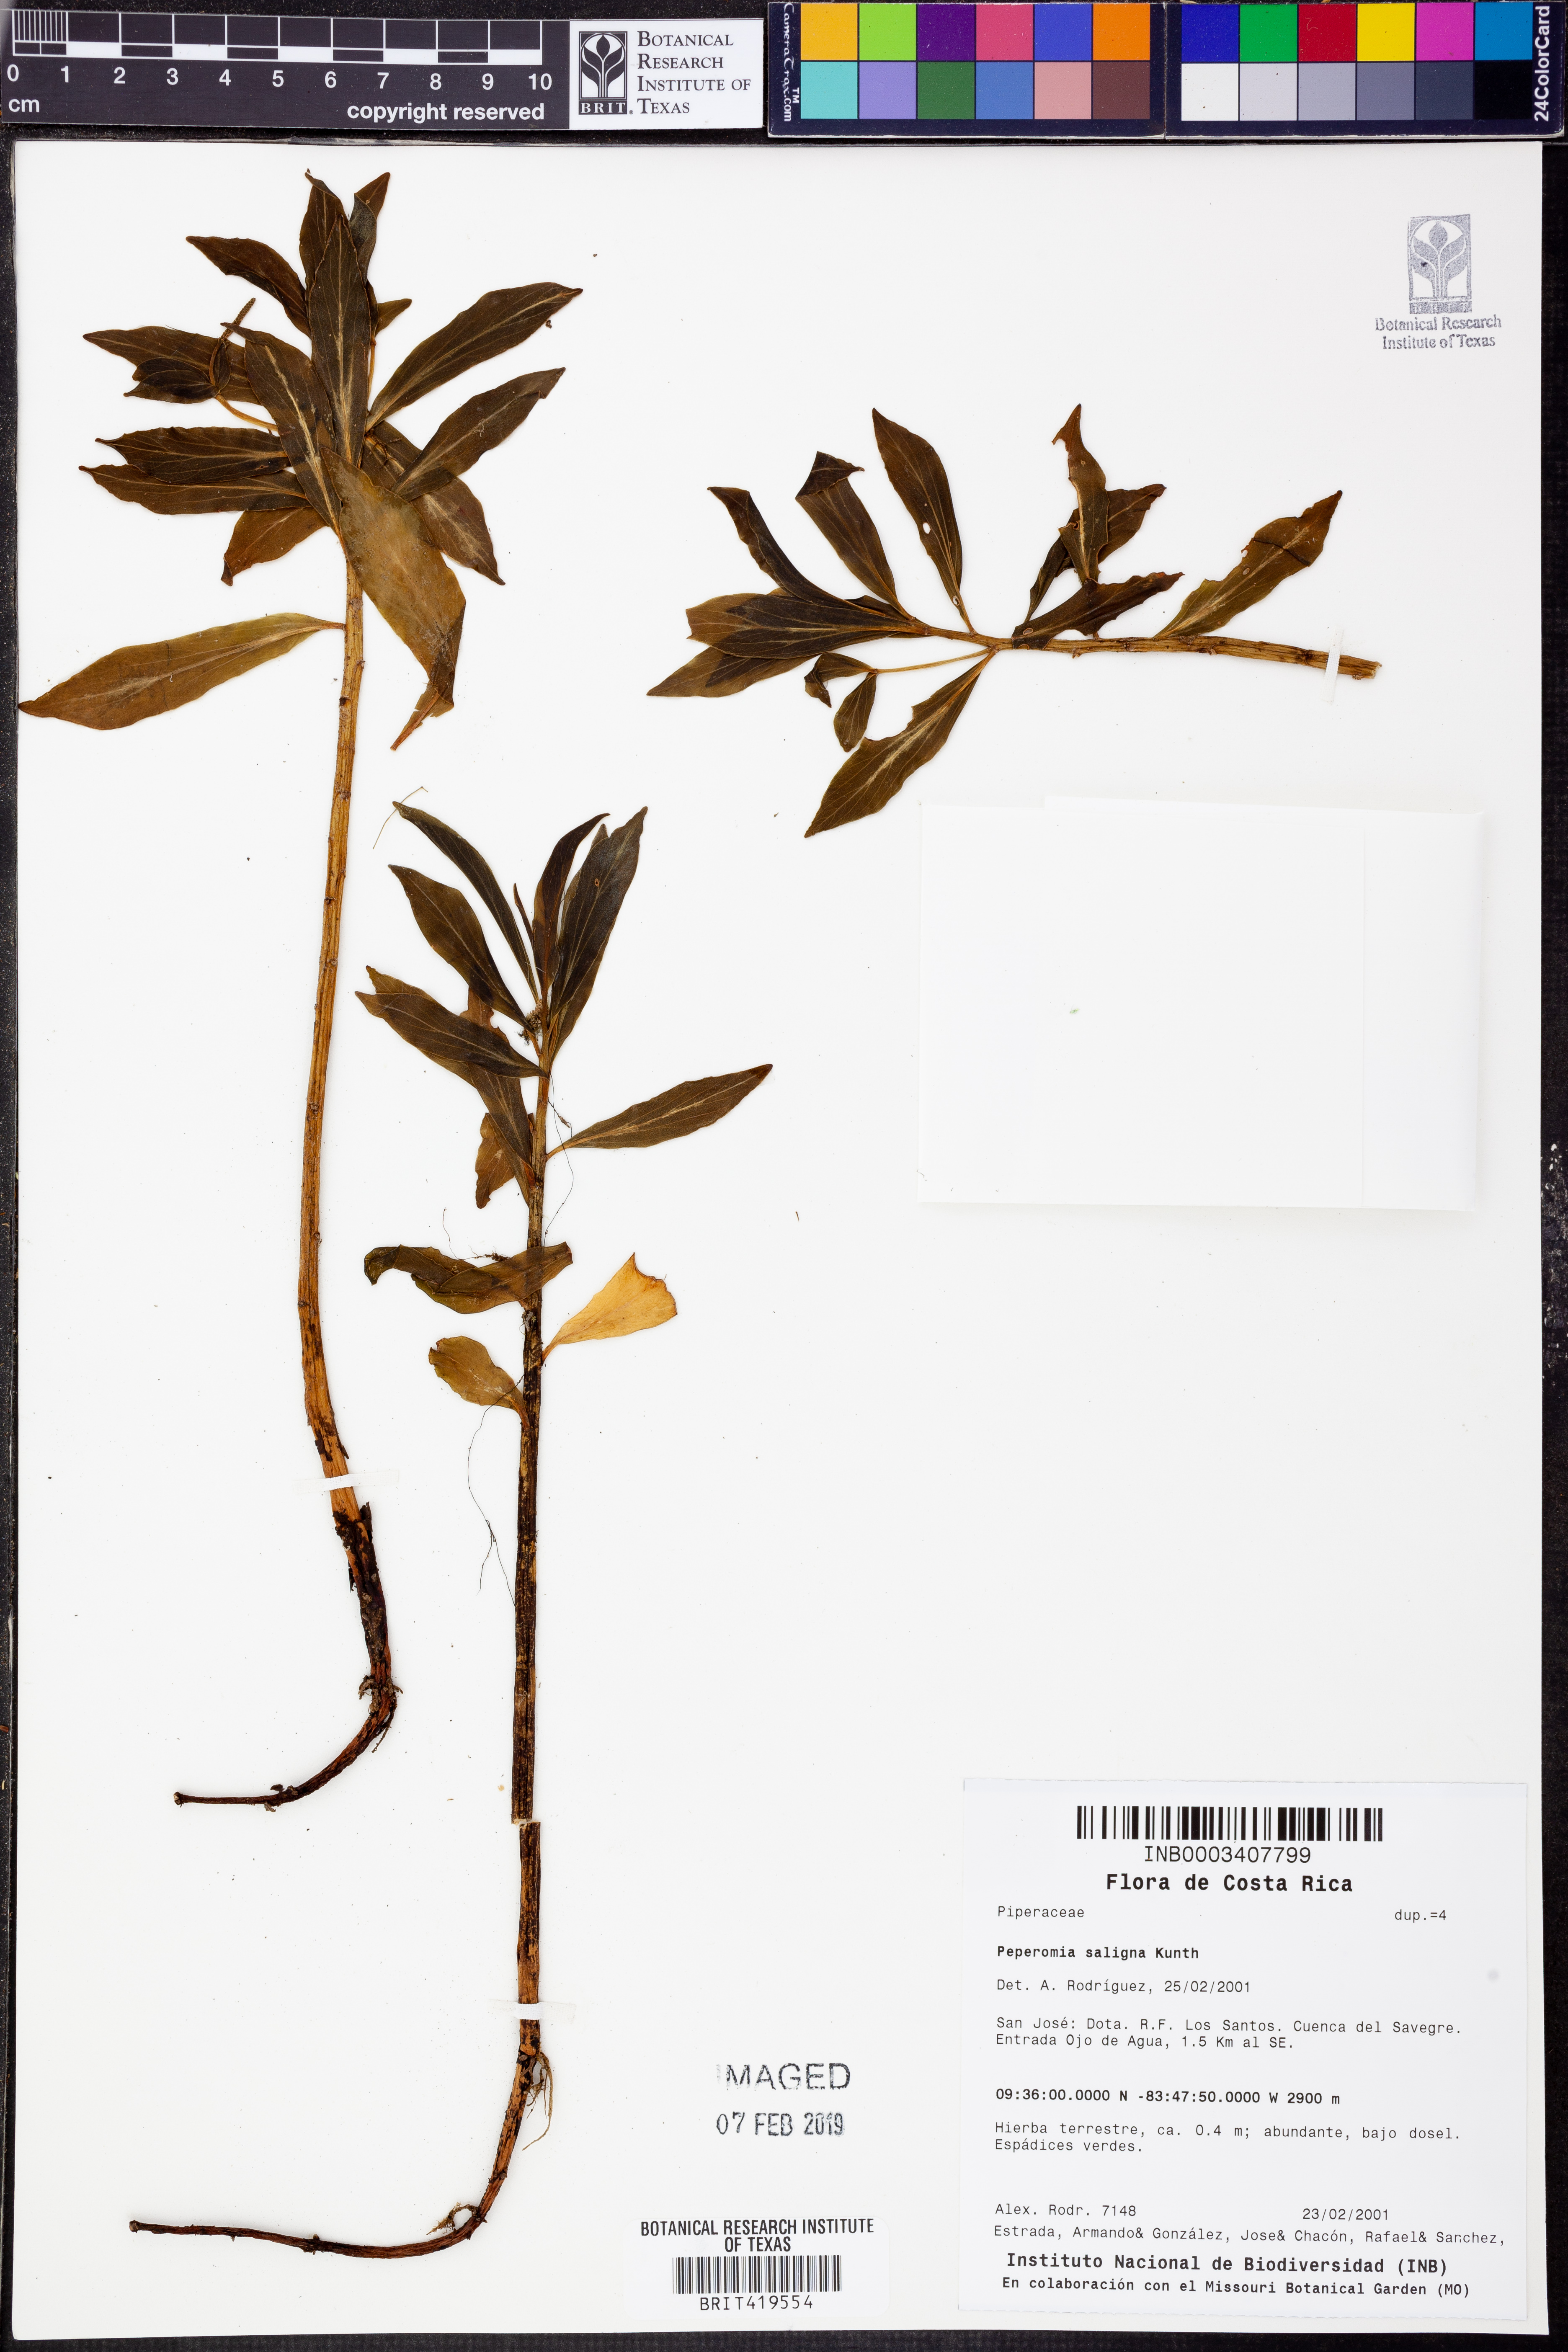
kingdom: Plantae
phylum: Tracheophyta
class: Magnoliopsida
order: Piperales
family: Piperaceae
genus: Peperomia
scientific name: Peperomia saligna
